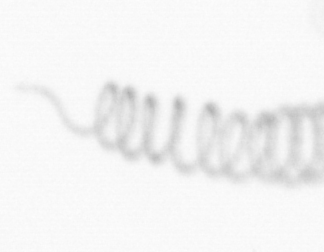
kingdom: Chromista
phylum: Ochrophyta
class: Bacillariophyceae
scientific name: Bacillariophyceae
